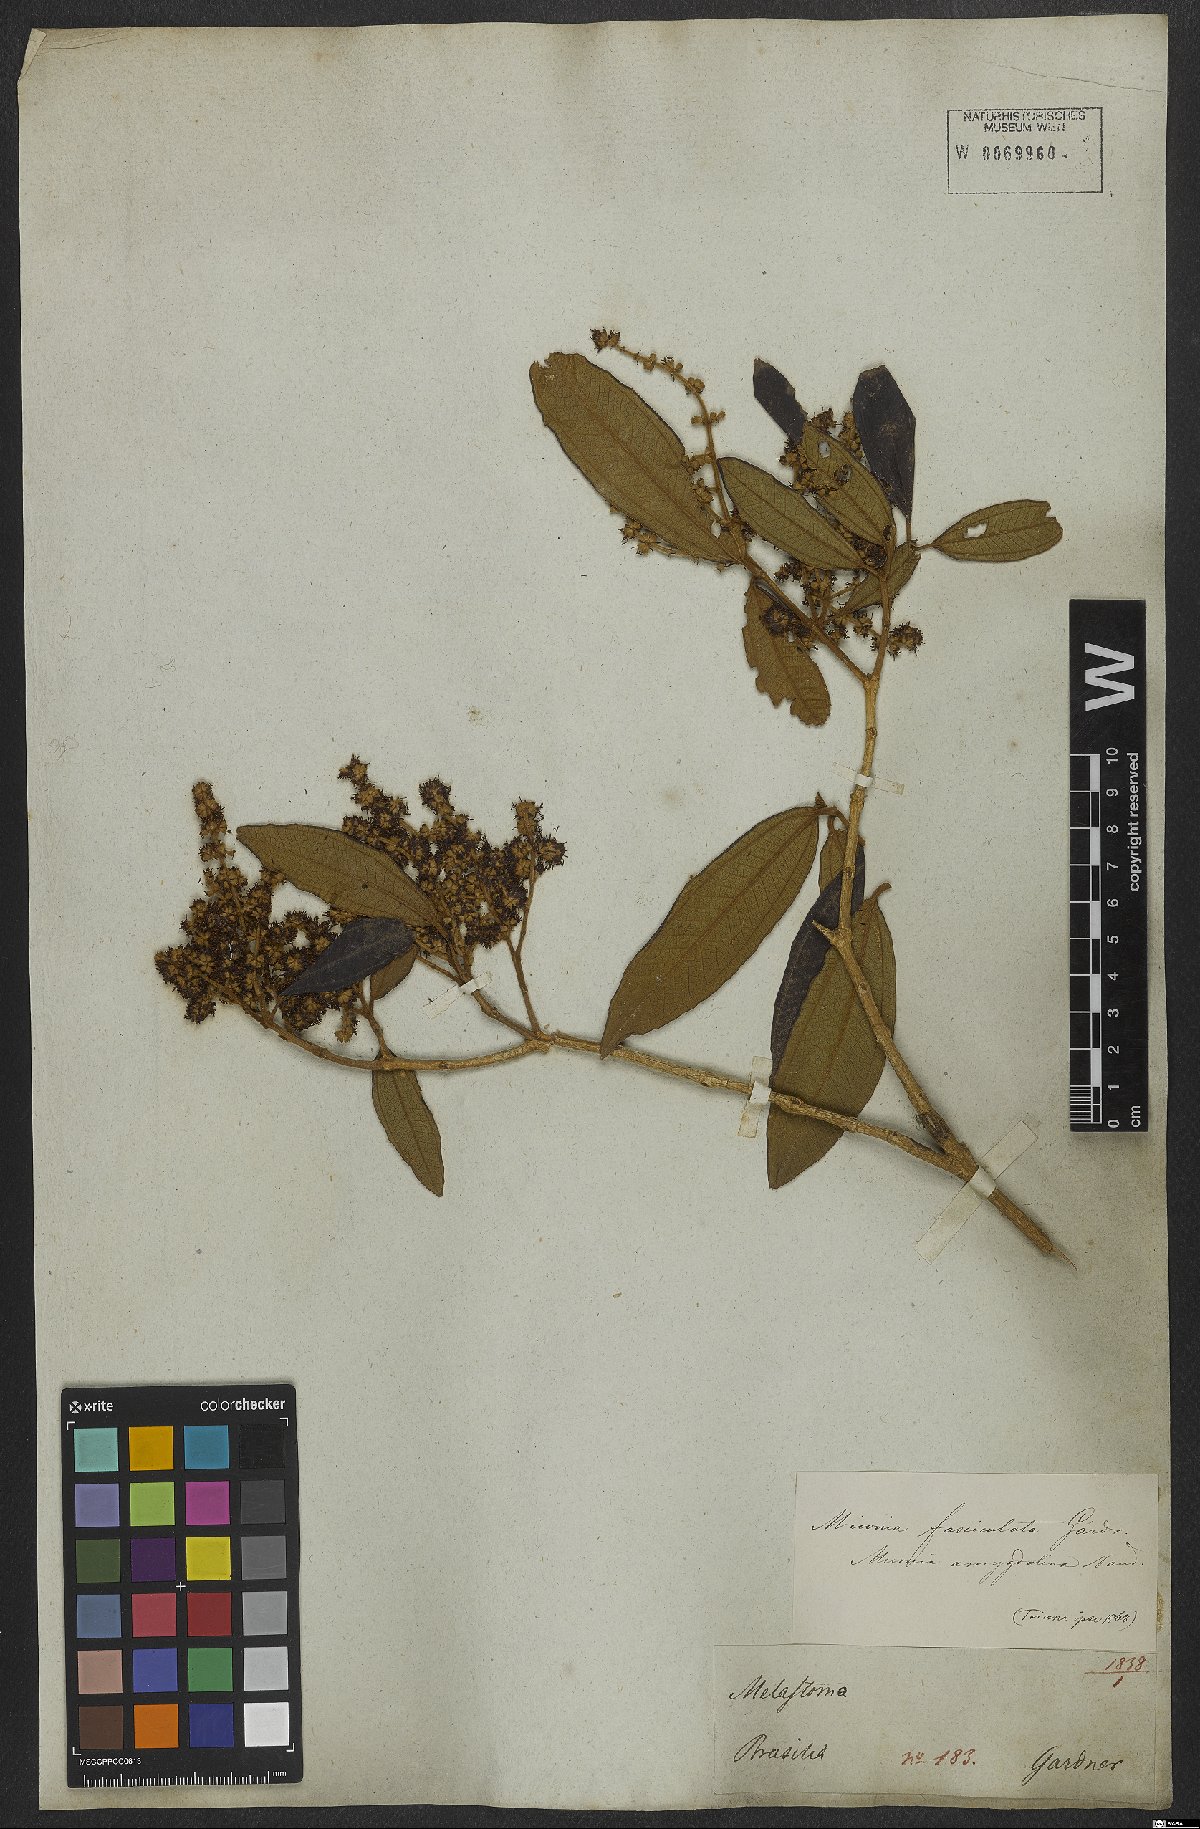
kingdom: Plantae
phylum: Tracheophyta
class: Magnoliopsida
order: Myrtales
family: Melastomataceae
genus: Miconia
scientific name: Miconia fasciculata
